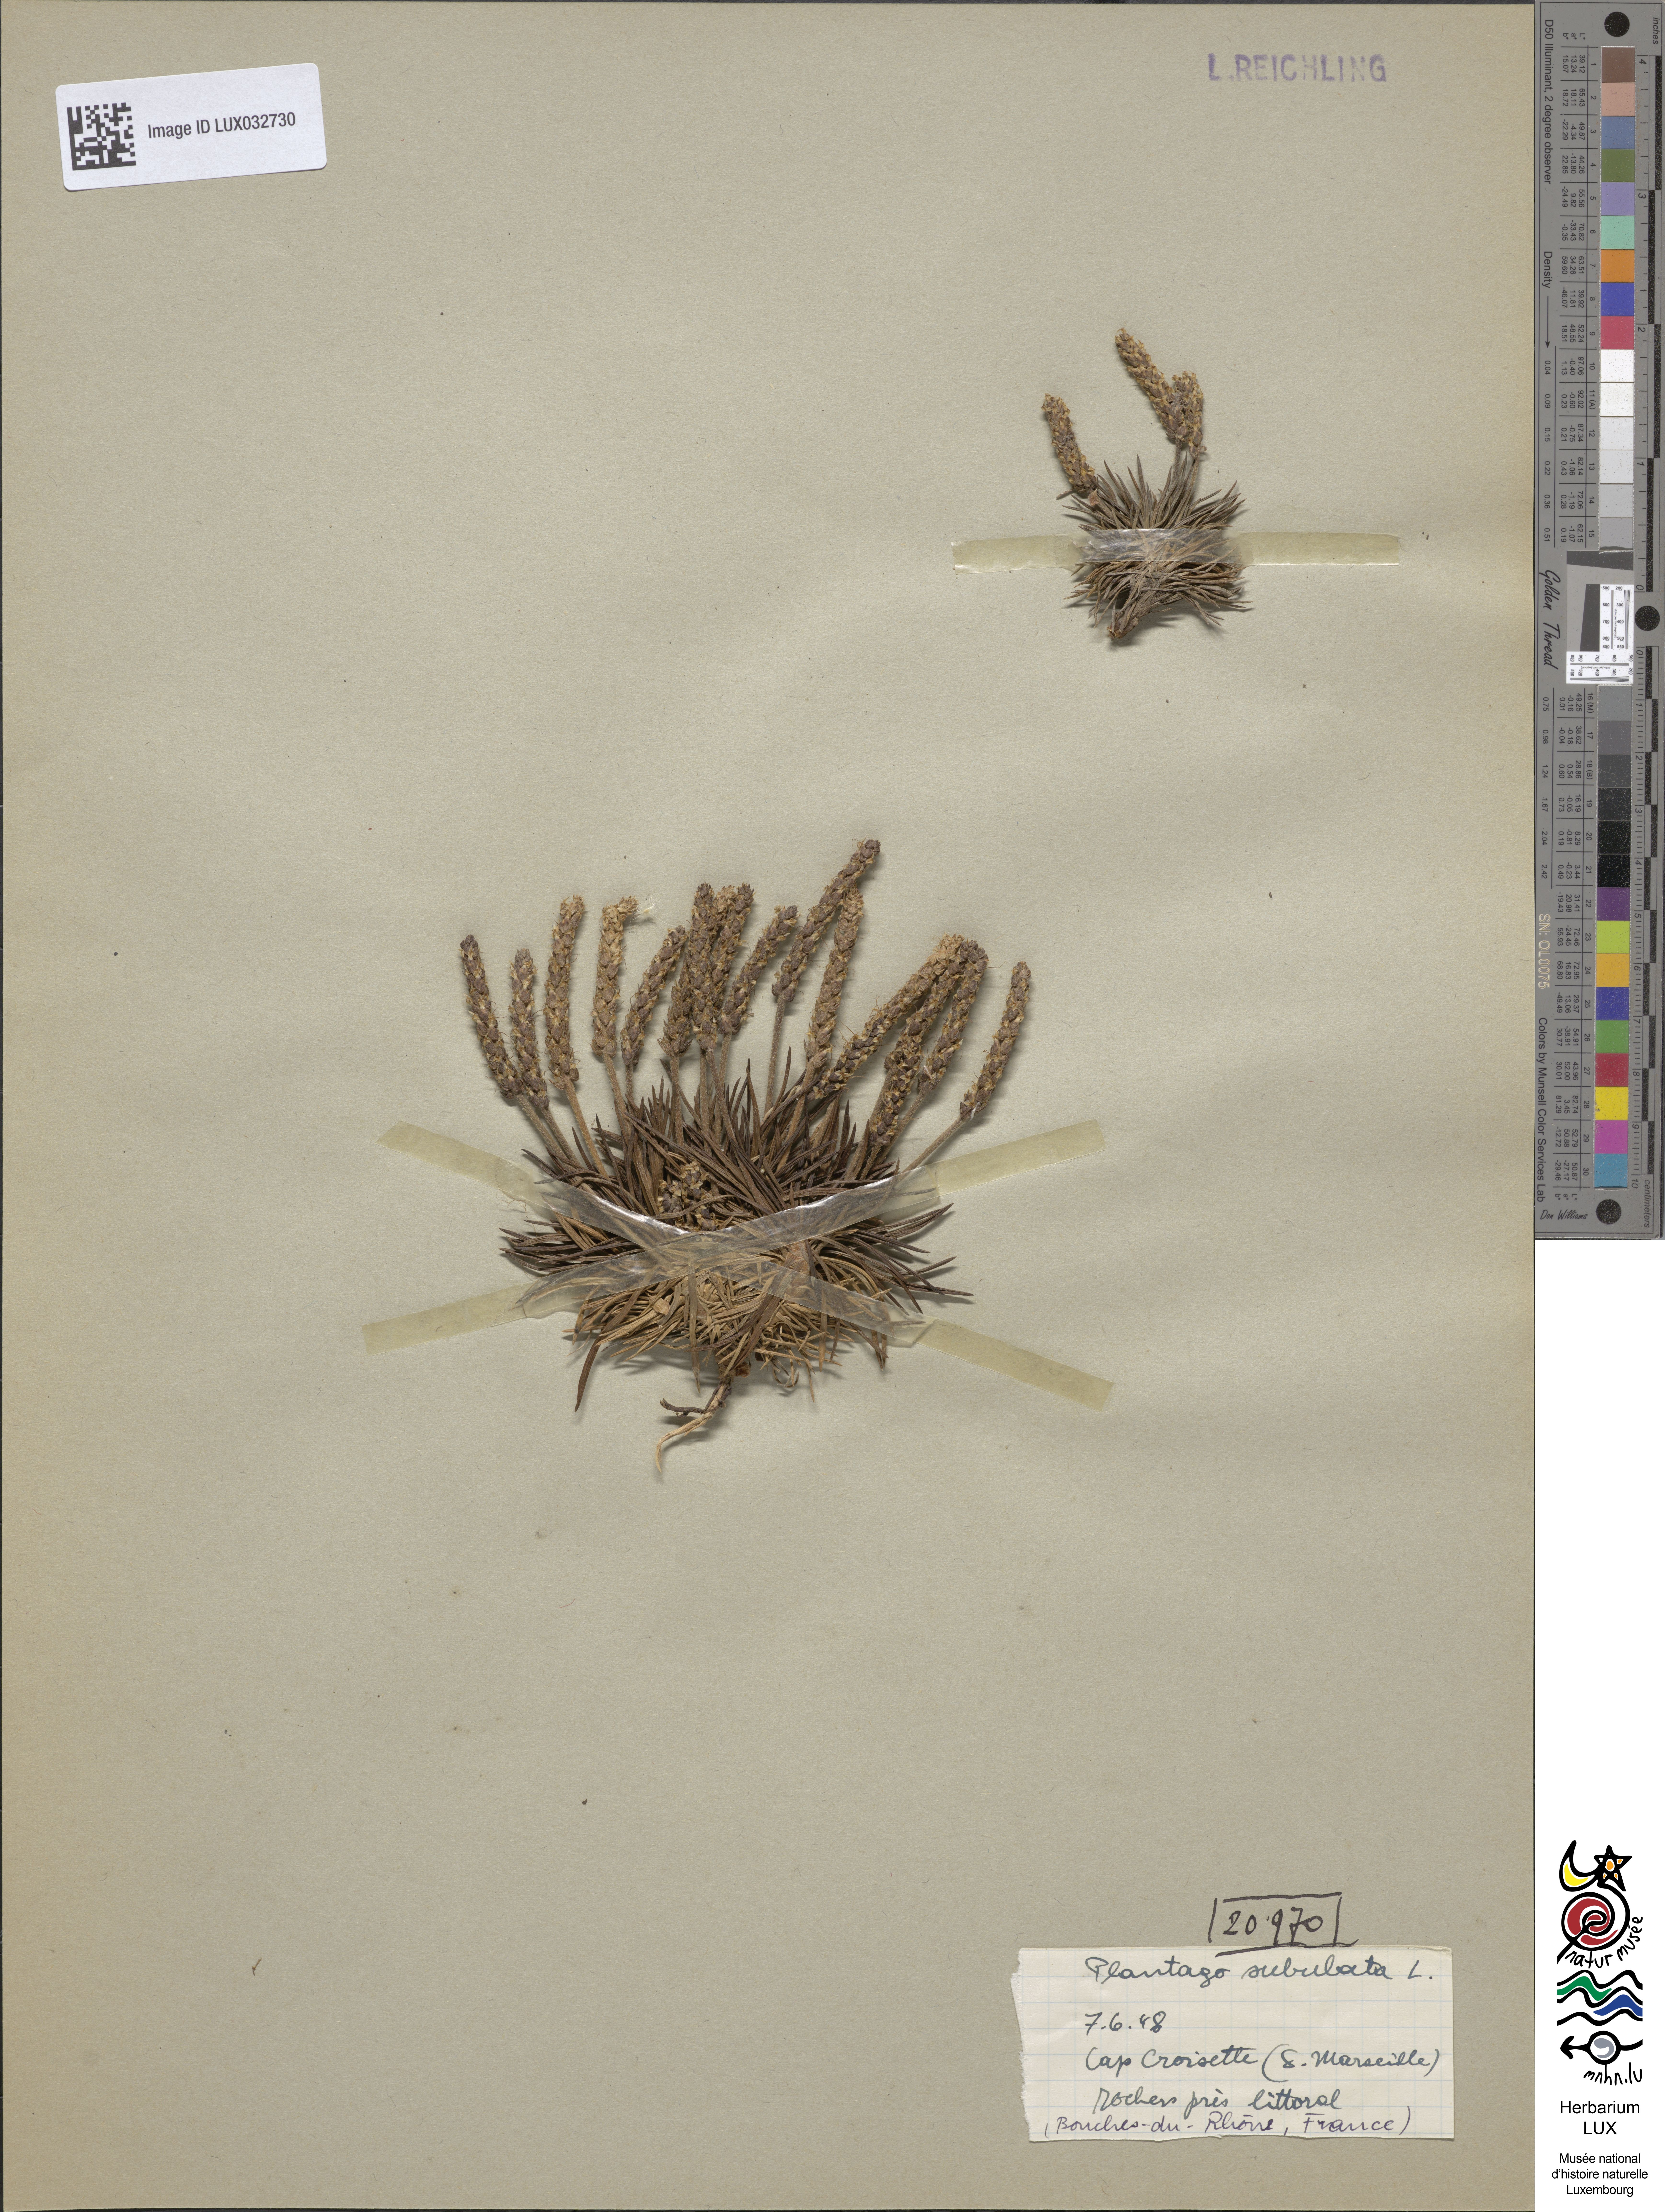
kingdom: Plantae
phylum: Tracheophyta
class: Magnoliopsida
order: Lamiales
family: Plantaginaceae
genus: Plantago
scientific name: Plantago subulata
